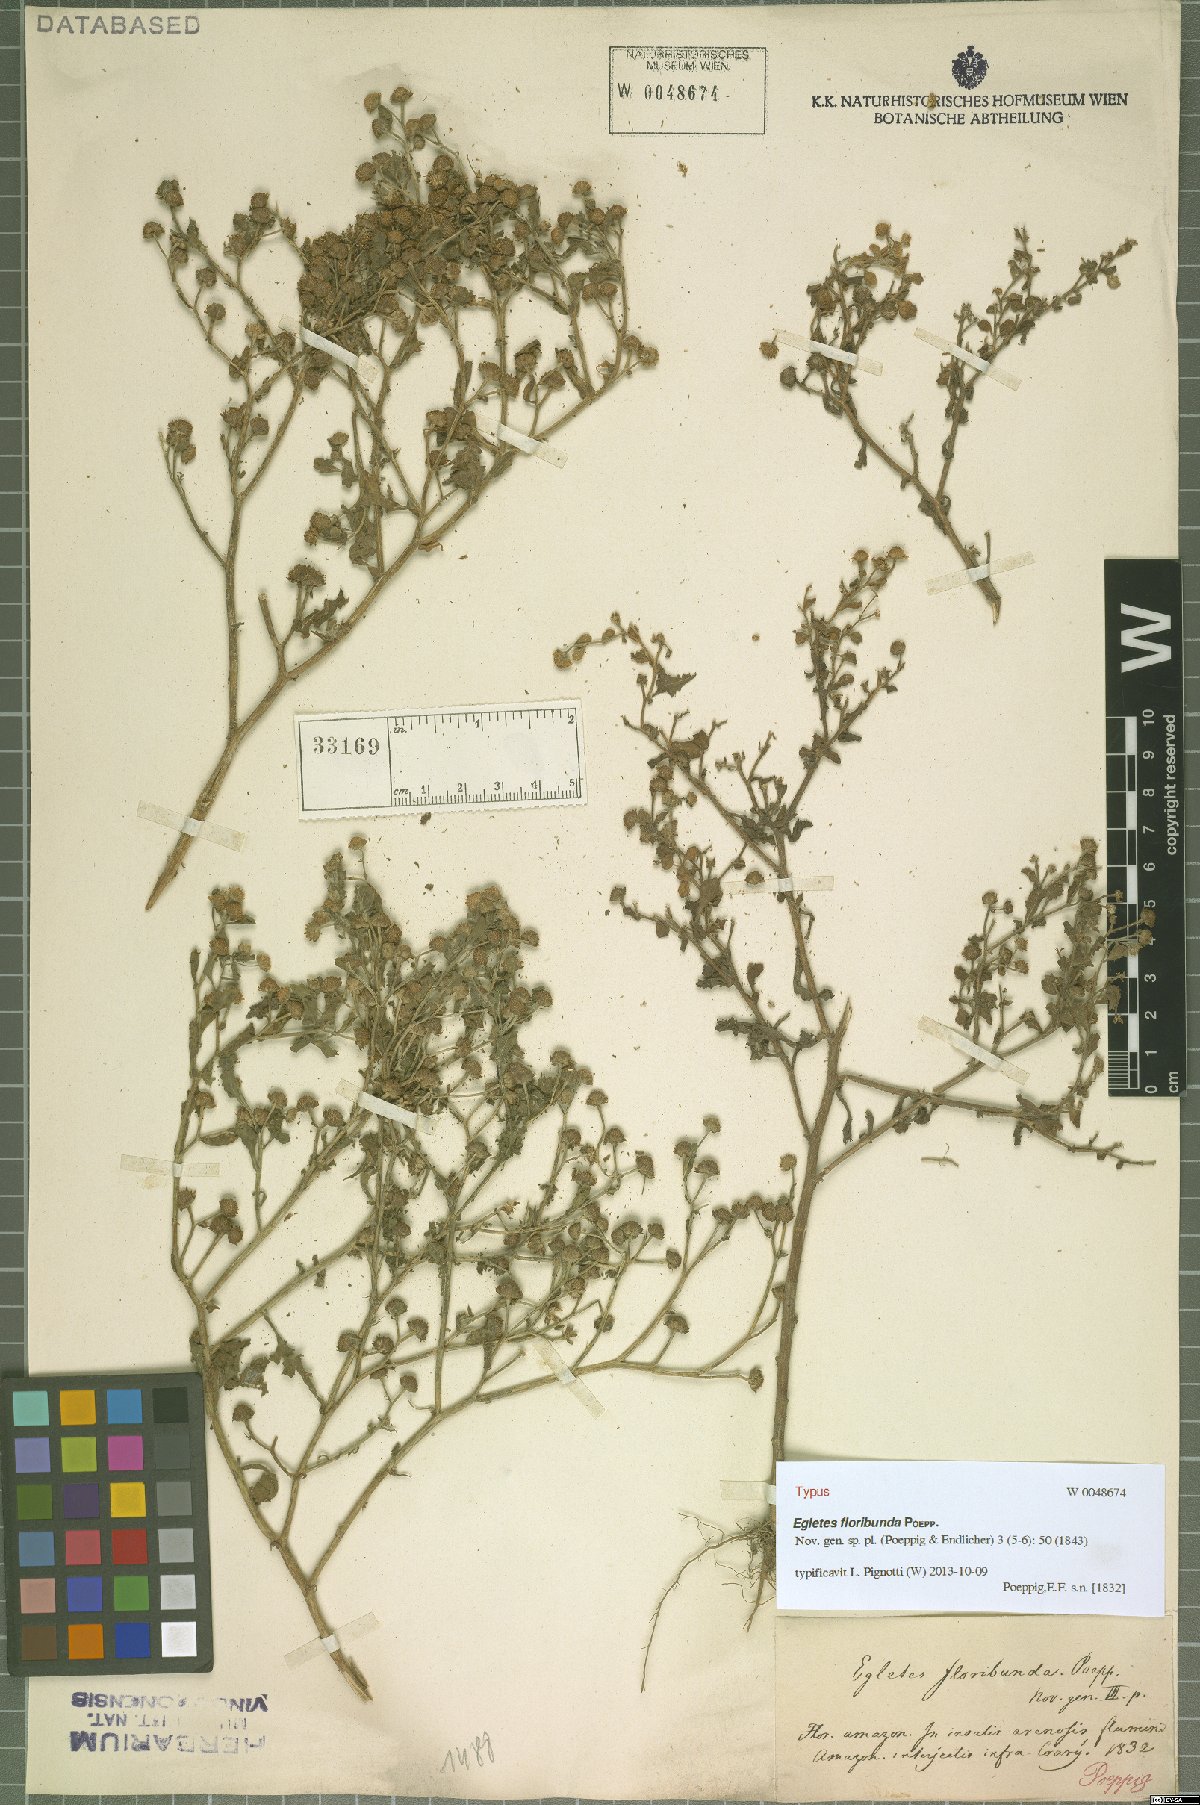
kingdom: Plantae
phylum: Tracheophyta
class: Magnoliopsida
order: Asterales
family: Asteraceae
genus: Egletes
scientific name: Egletes viscosa
